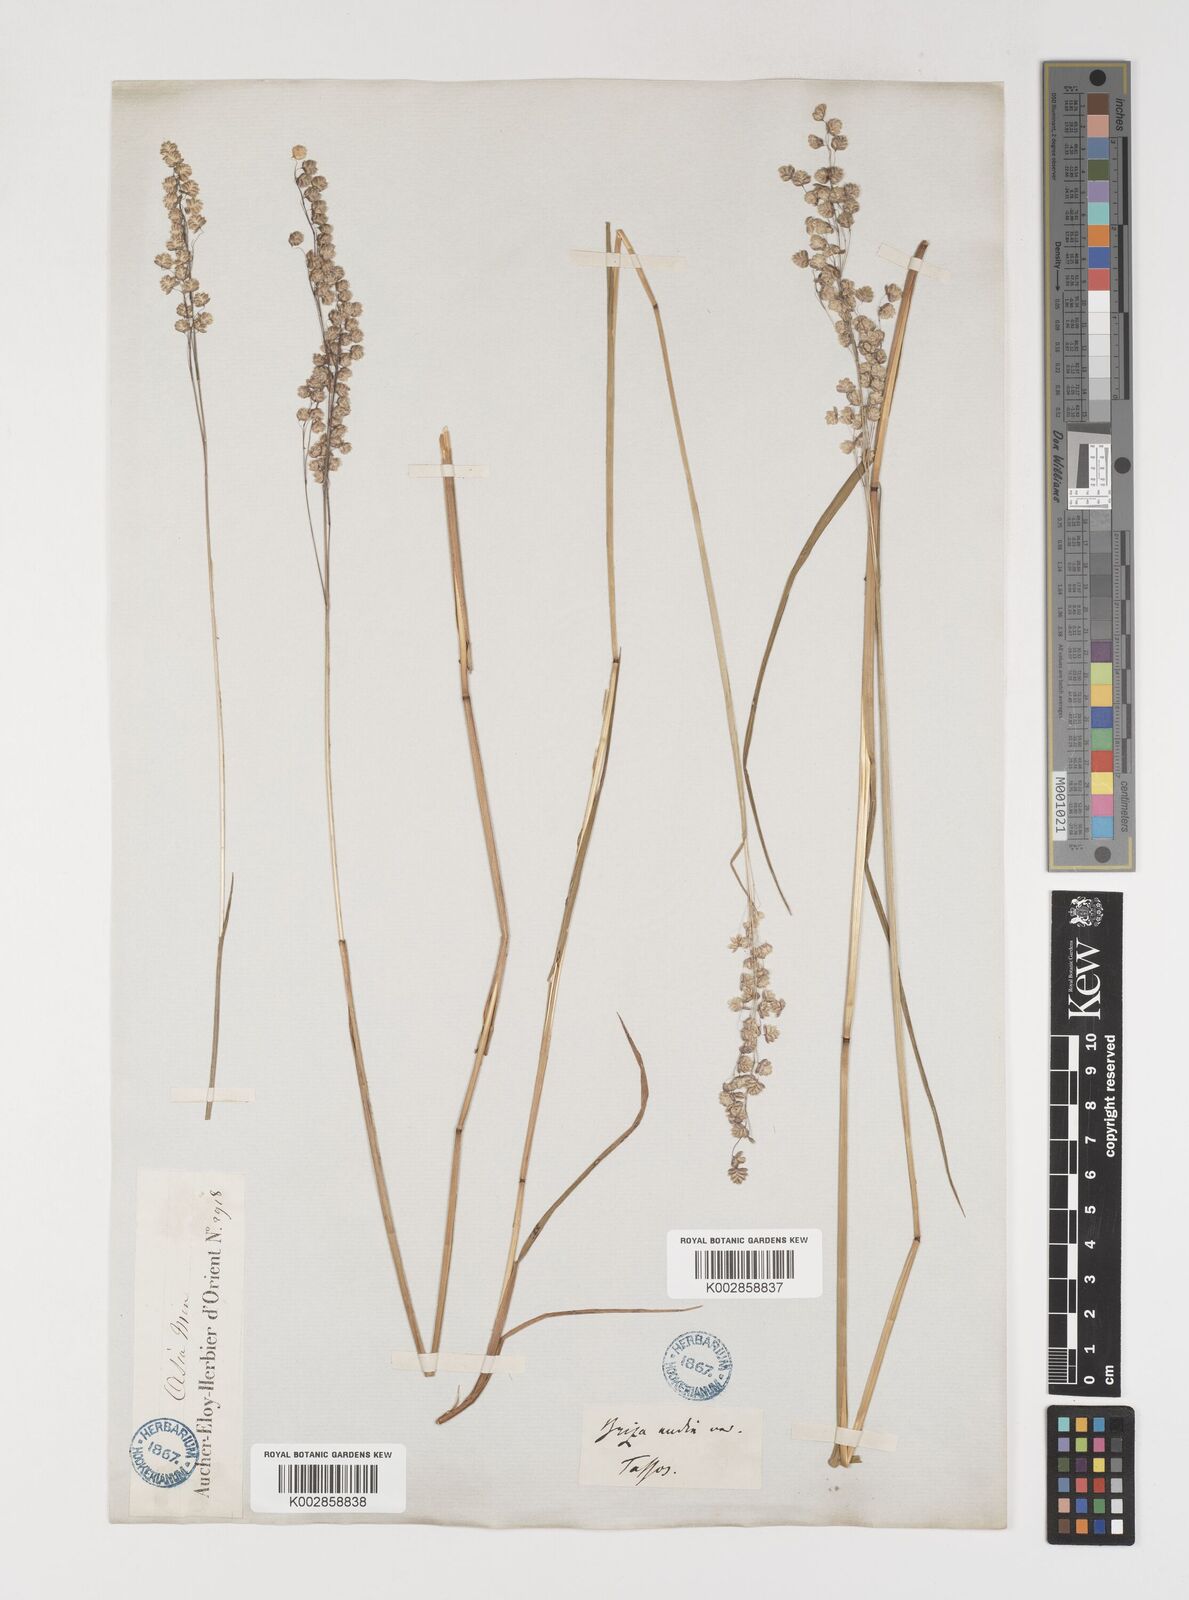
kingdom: Plantae
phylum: Tracheophyta
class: Liliopsida
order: Poales
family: Poaceae
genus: Briza
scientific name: Briza media
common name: Quaking grass
